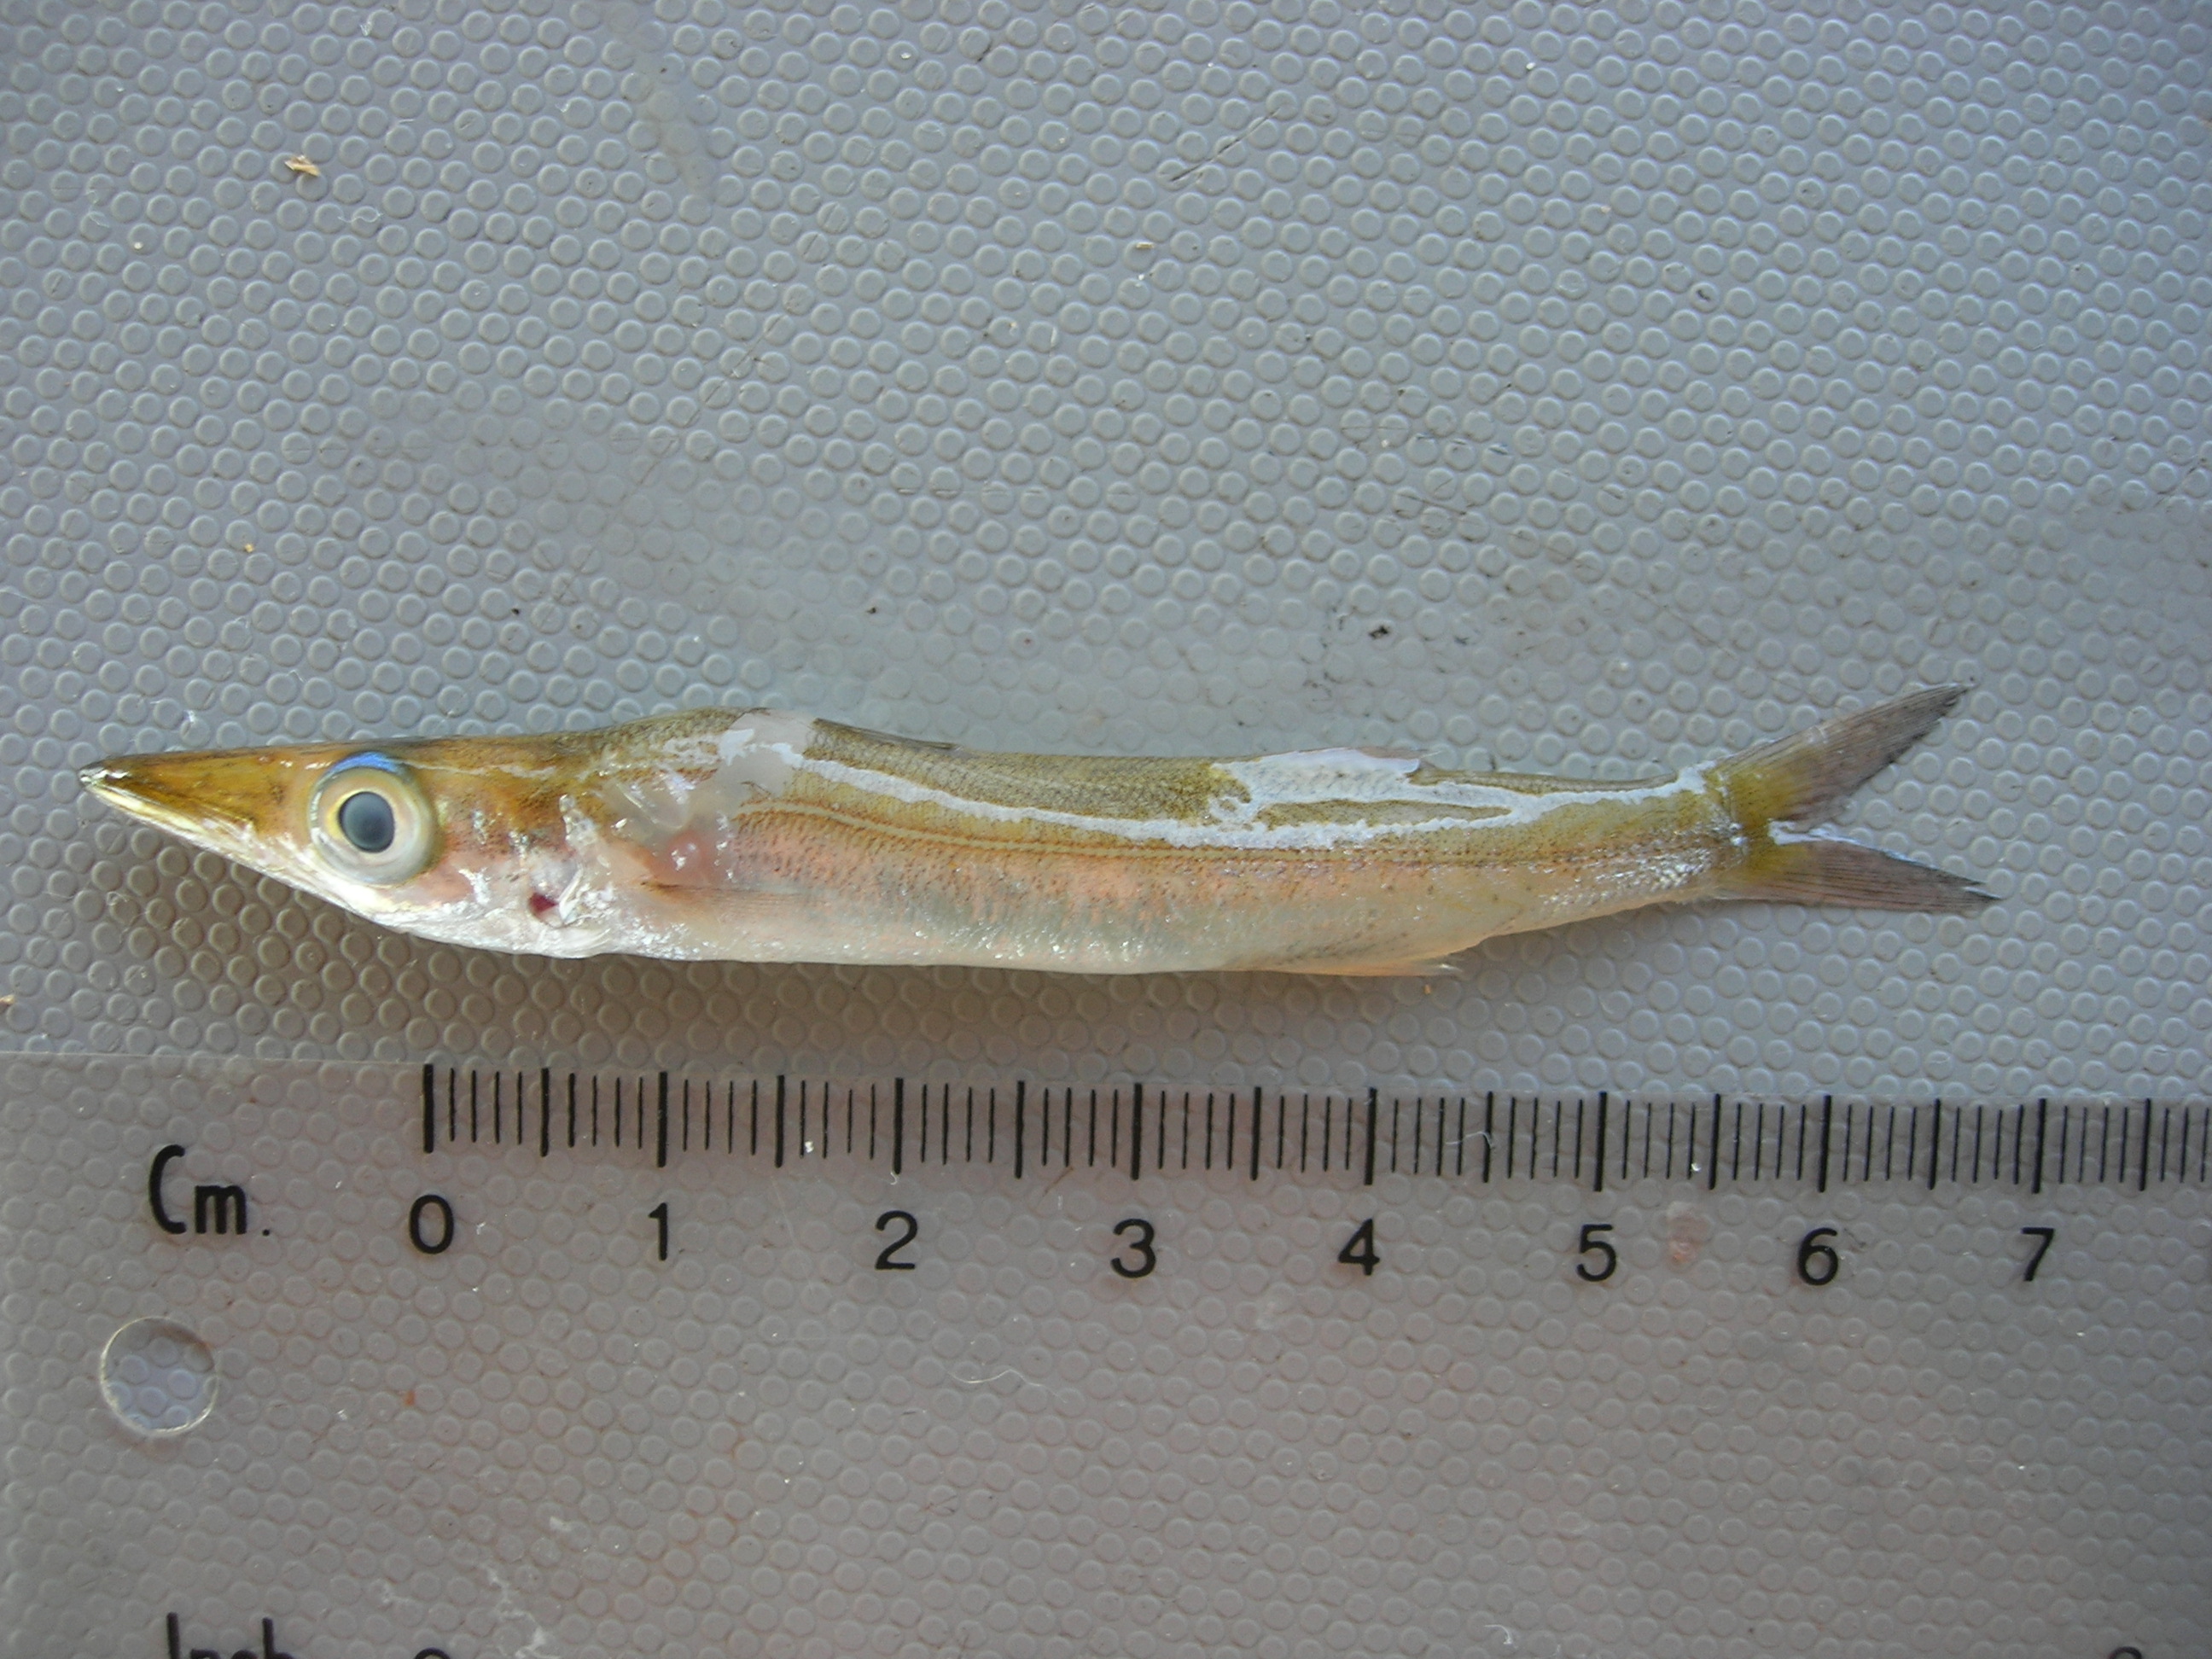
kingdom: Animalia
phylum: Chordata
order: Perciformes
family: Sphyraenidae
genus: Sphyraena
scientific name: Sphyraena
